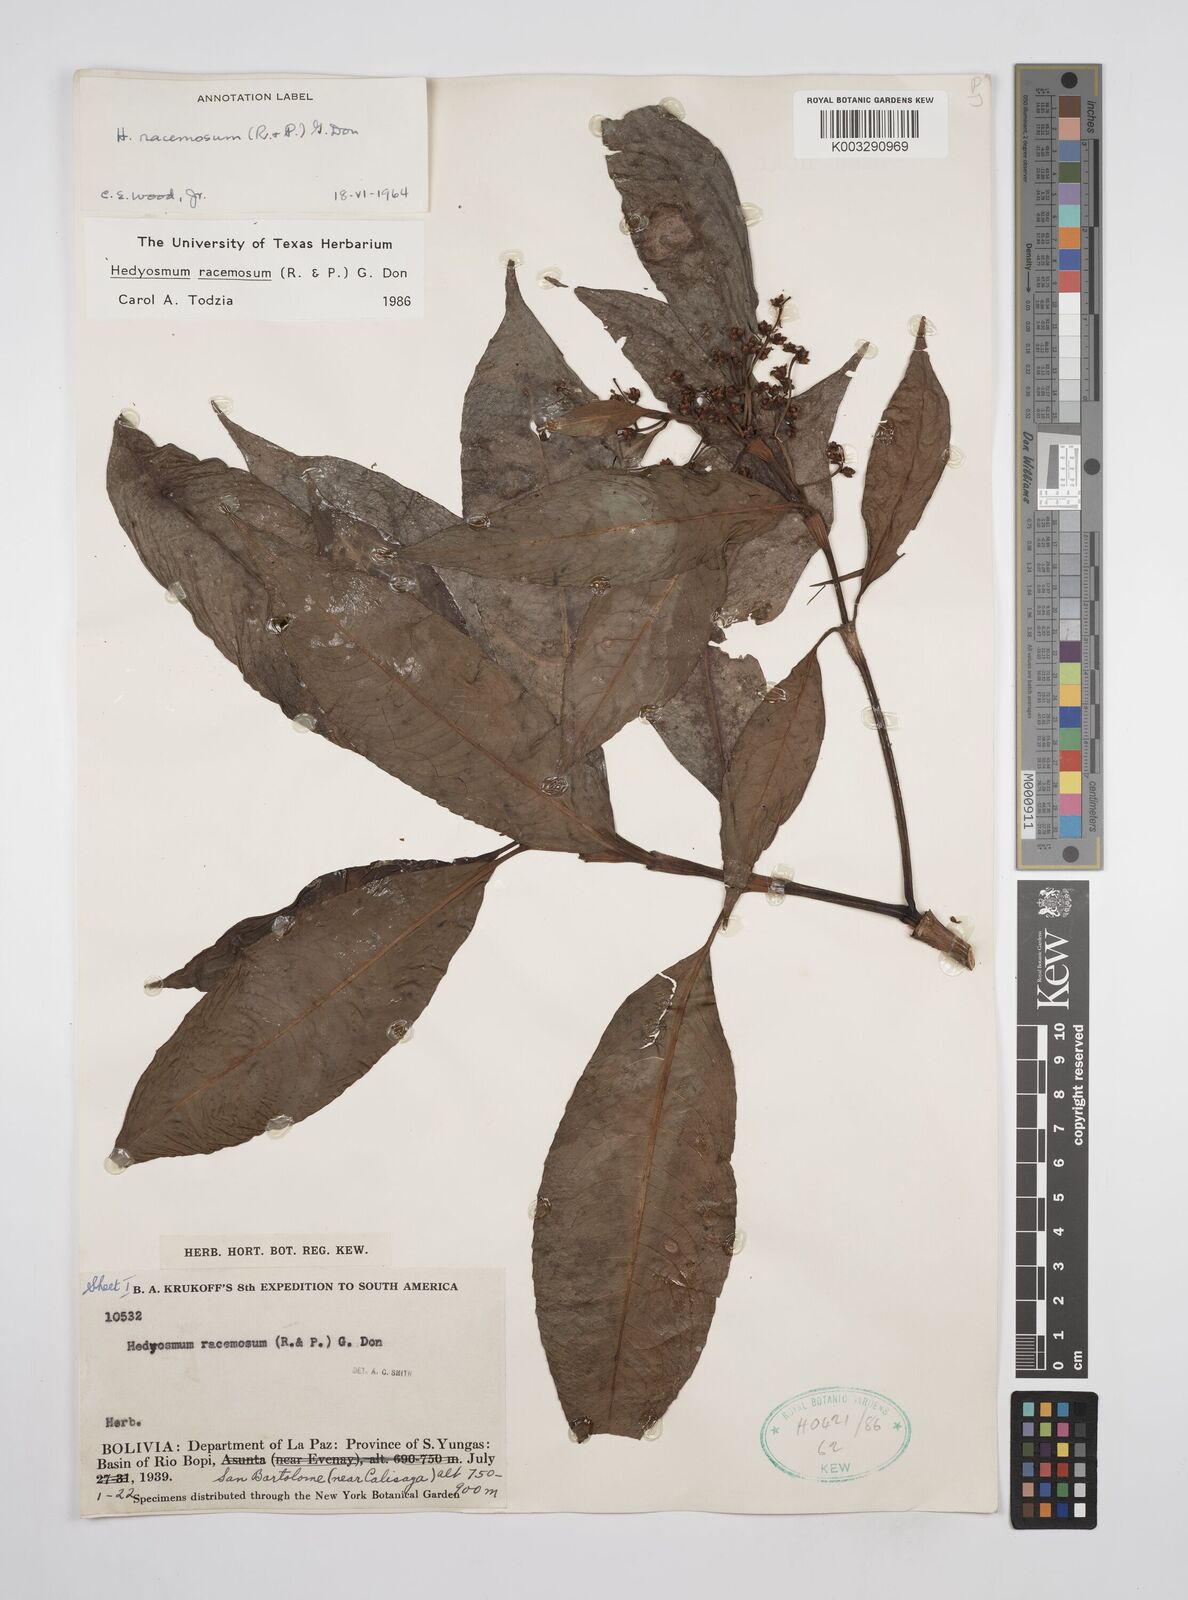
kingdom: Plantae
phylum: Tracheophyta
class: Magnoliopsida
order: Chloranthales
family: Chloranthaceae
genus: Hedyosmum
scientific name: Hedyosmum racemosum
